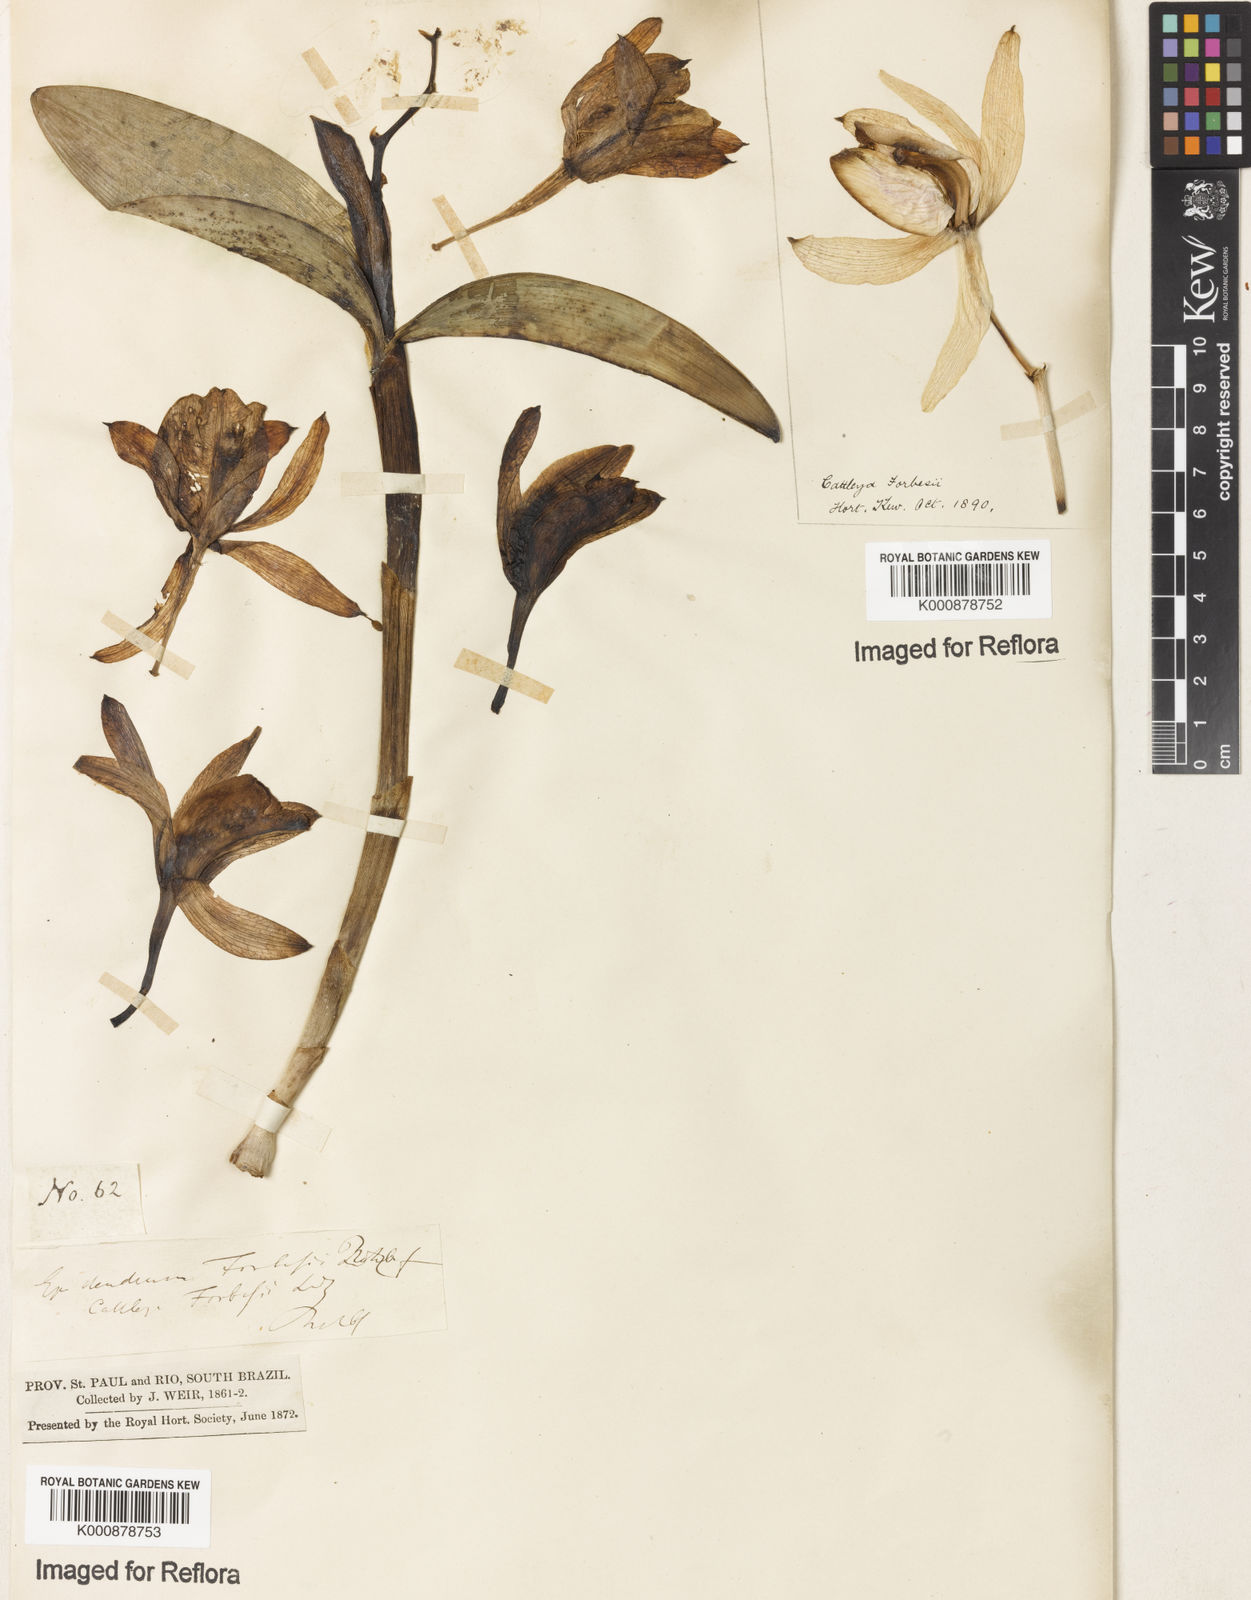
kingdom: Plantae
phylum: Tracheophyta
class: Liliopsida
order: Asparagales
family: Orchidaceae
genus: Cattleya
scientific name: Cattleya forbesii
